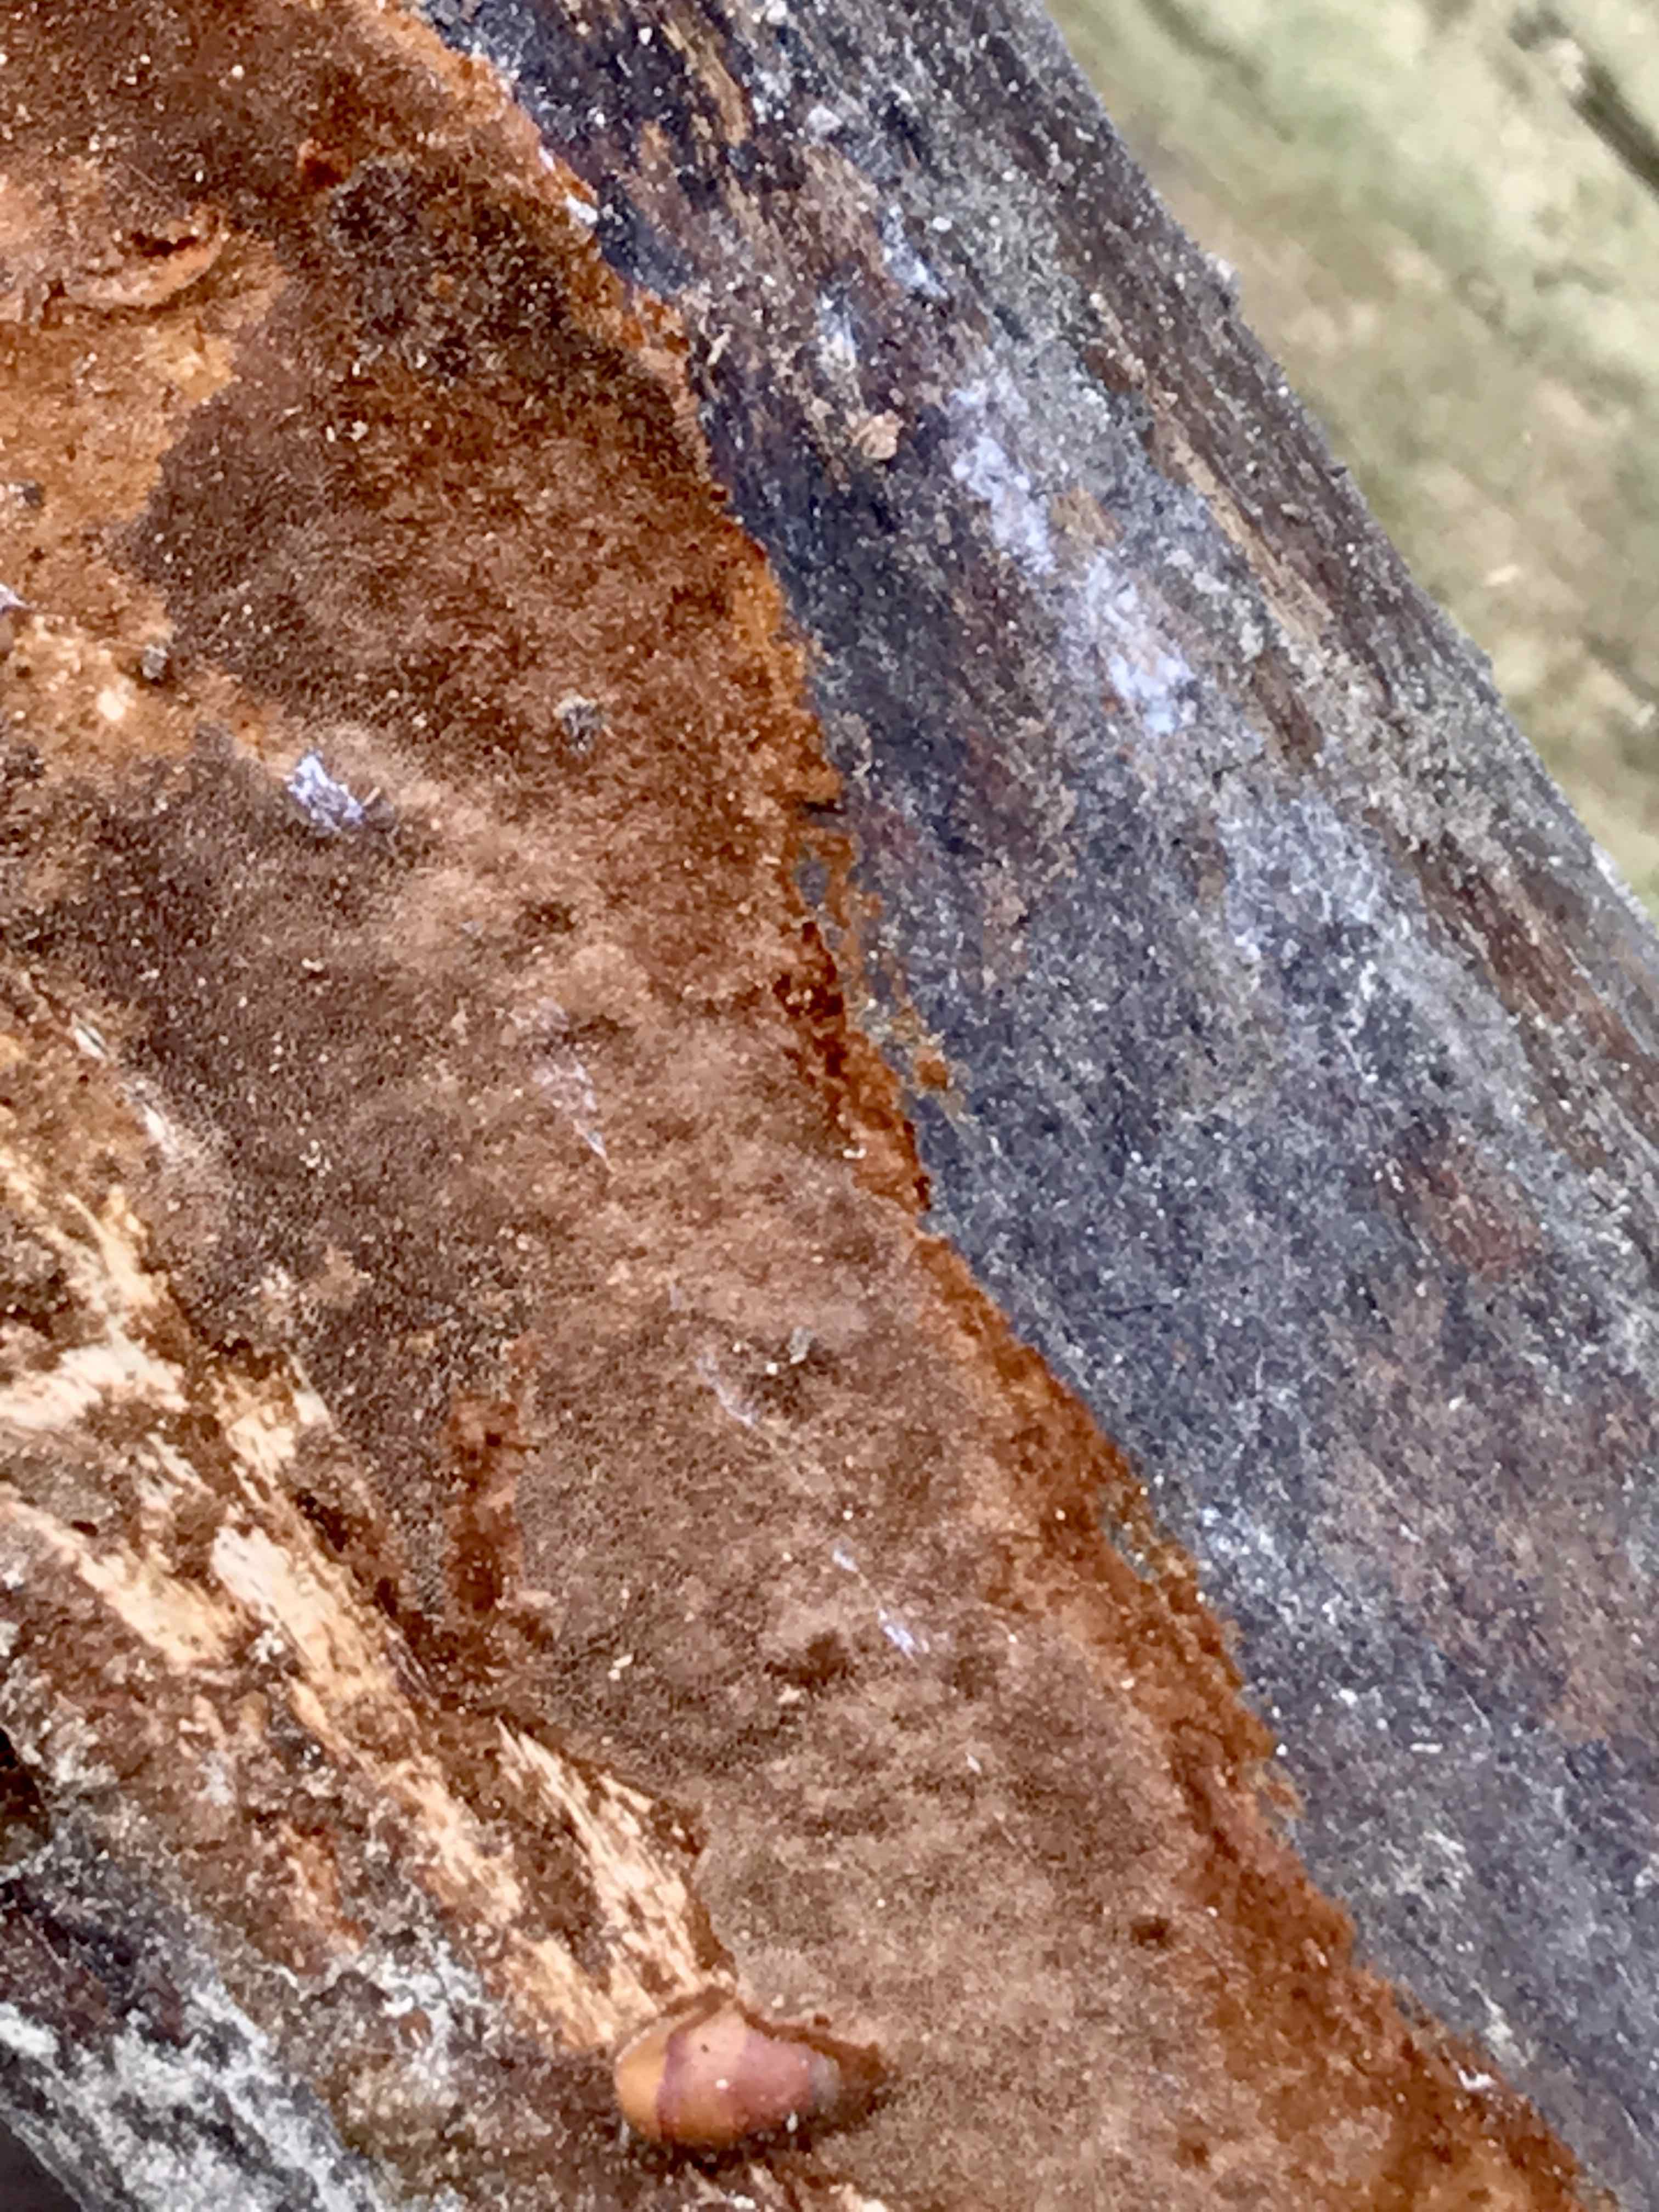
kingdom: Fungi
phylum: Basidiomycota
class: Agaricomycetes
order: Hymenochaetales
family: Hymenochaetaceae
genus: Fuscoporia
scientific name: Fuscoporia ferrea
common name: skorpe-ildporesvamp
